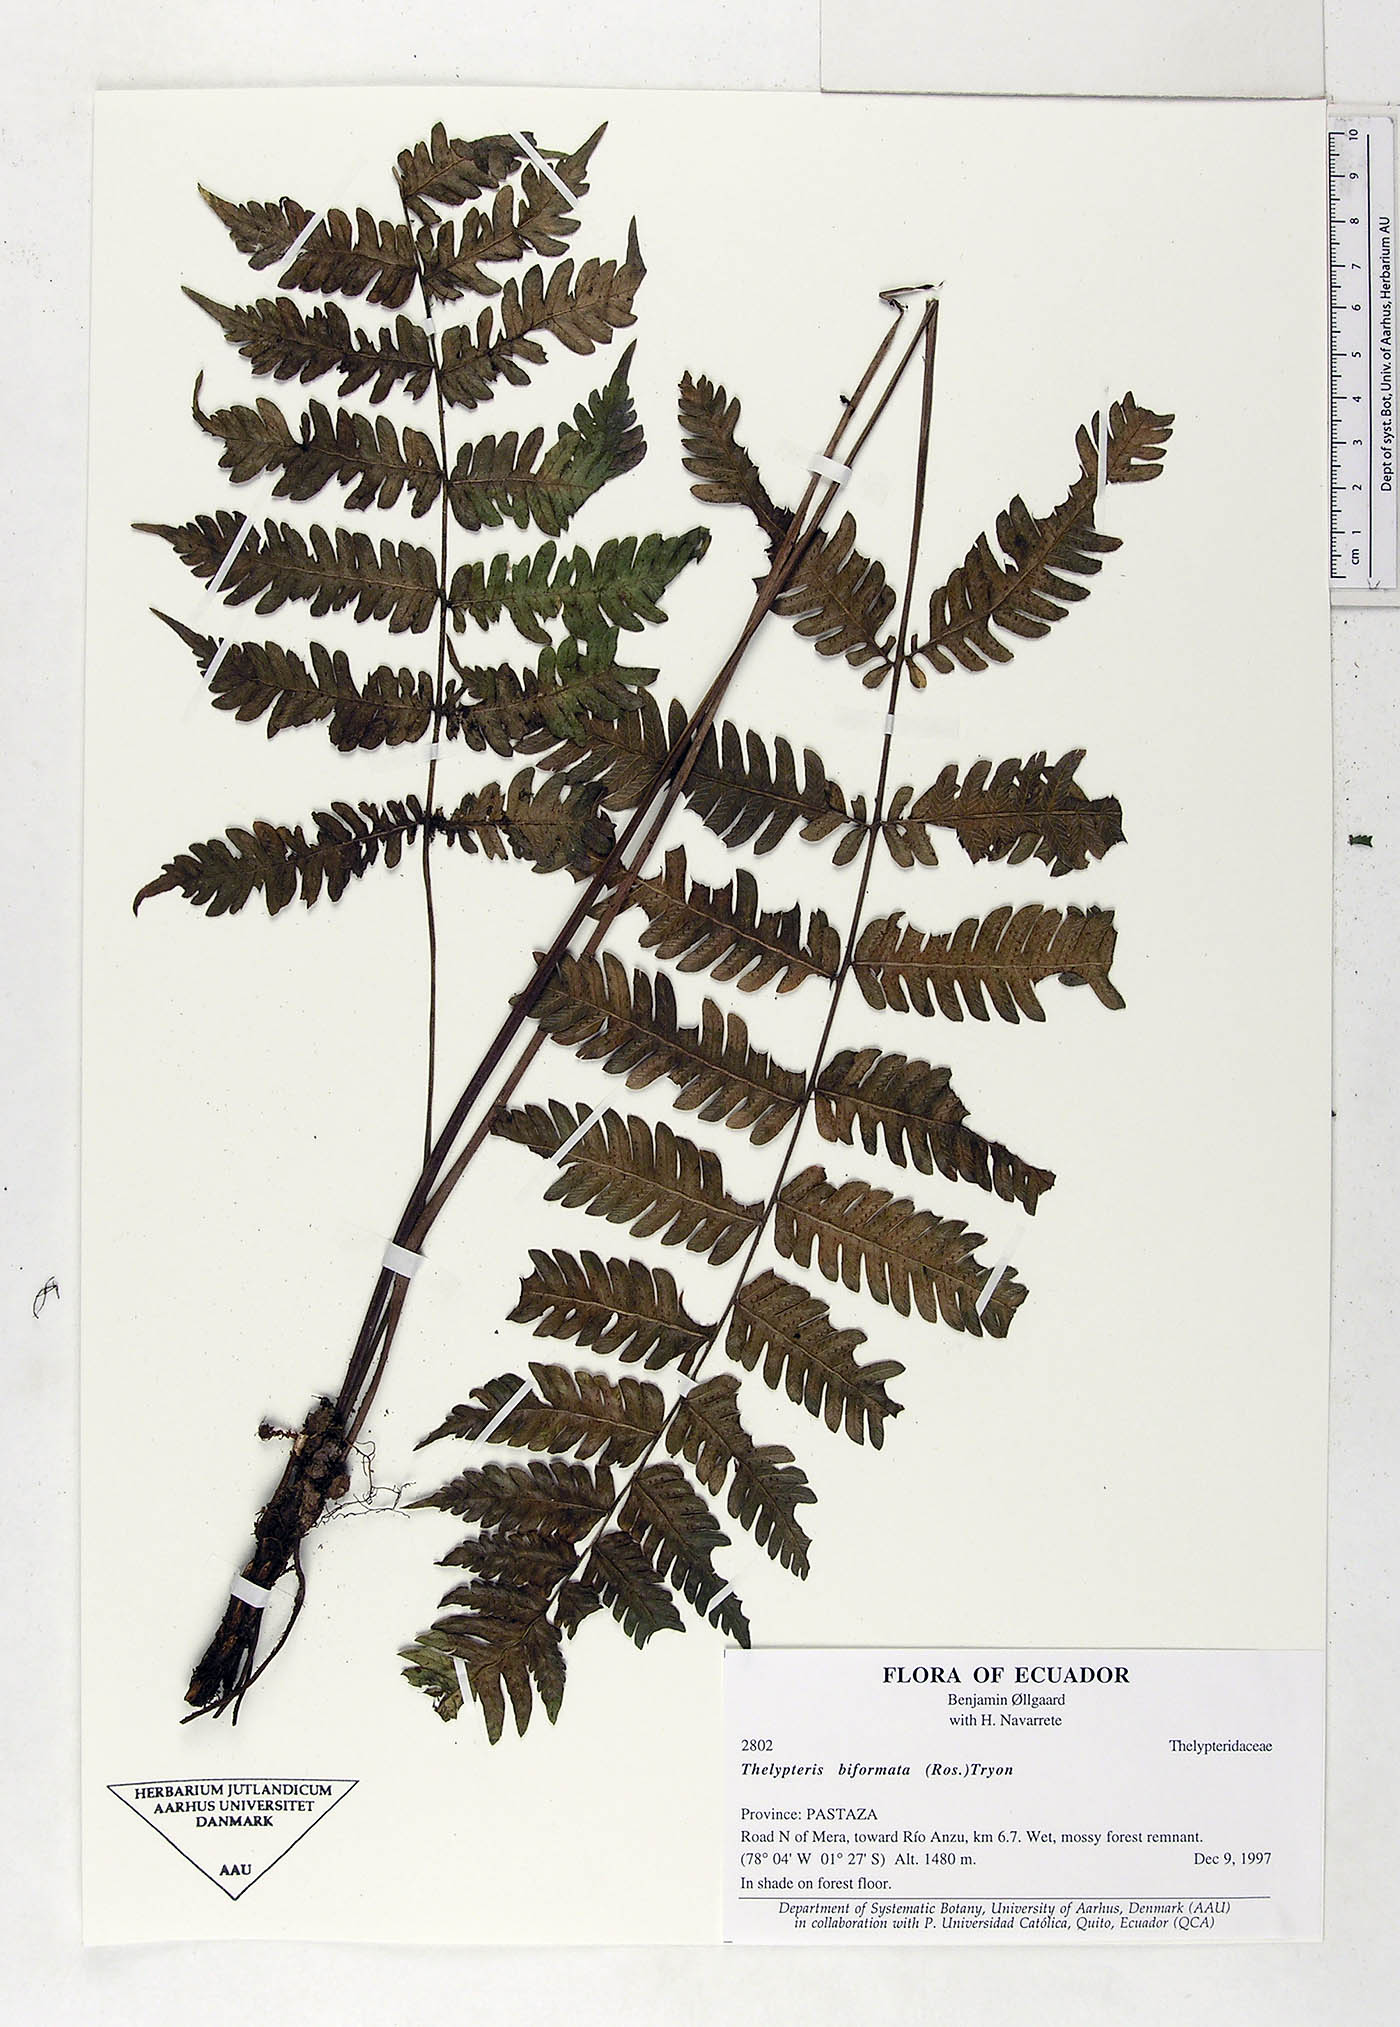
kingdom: Plantae
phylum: Tracheophyta
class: Polypodiopsida
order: Polypodiales
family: Thelypteridaceae
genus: Goniopteris
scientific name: Goniopteris biformata
